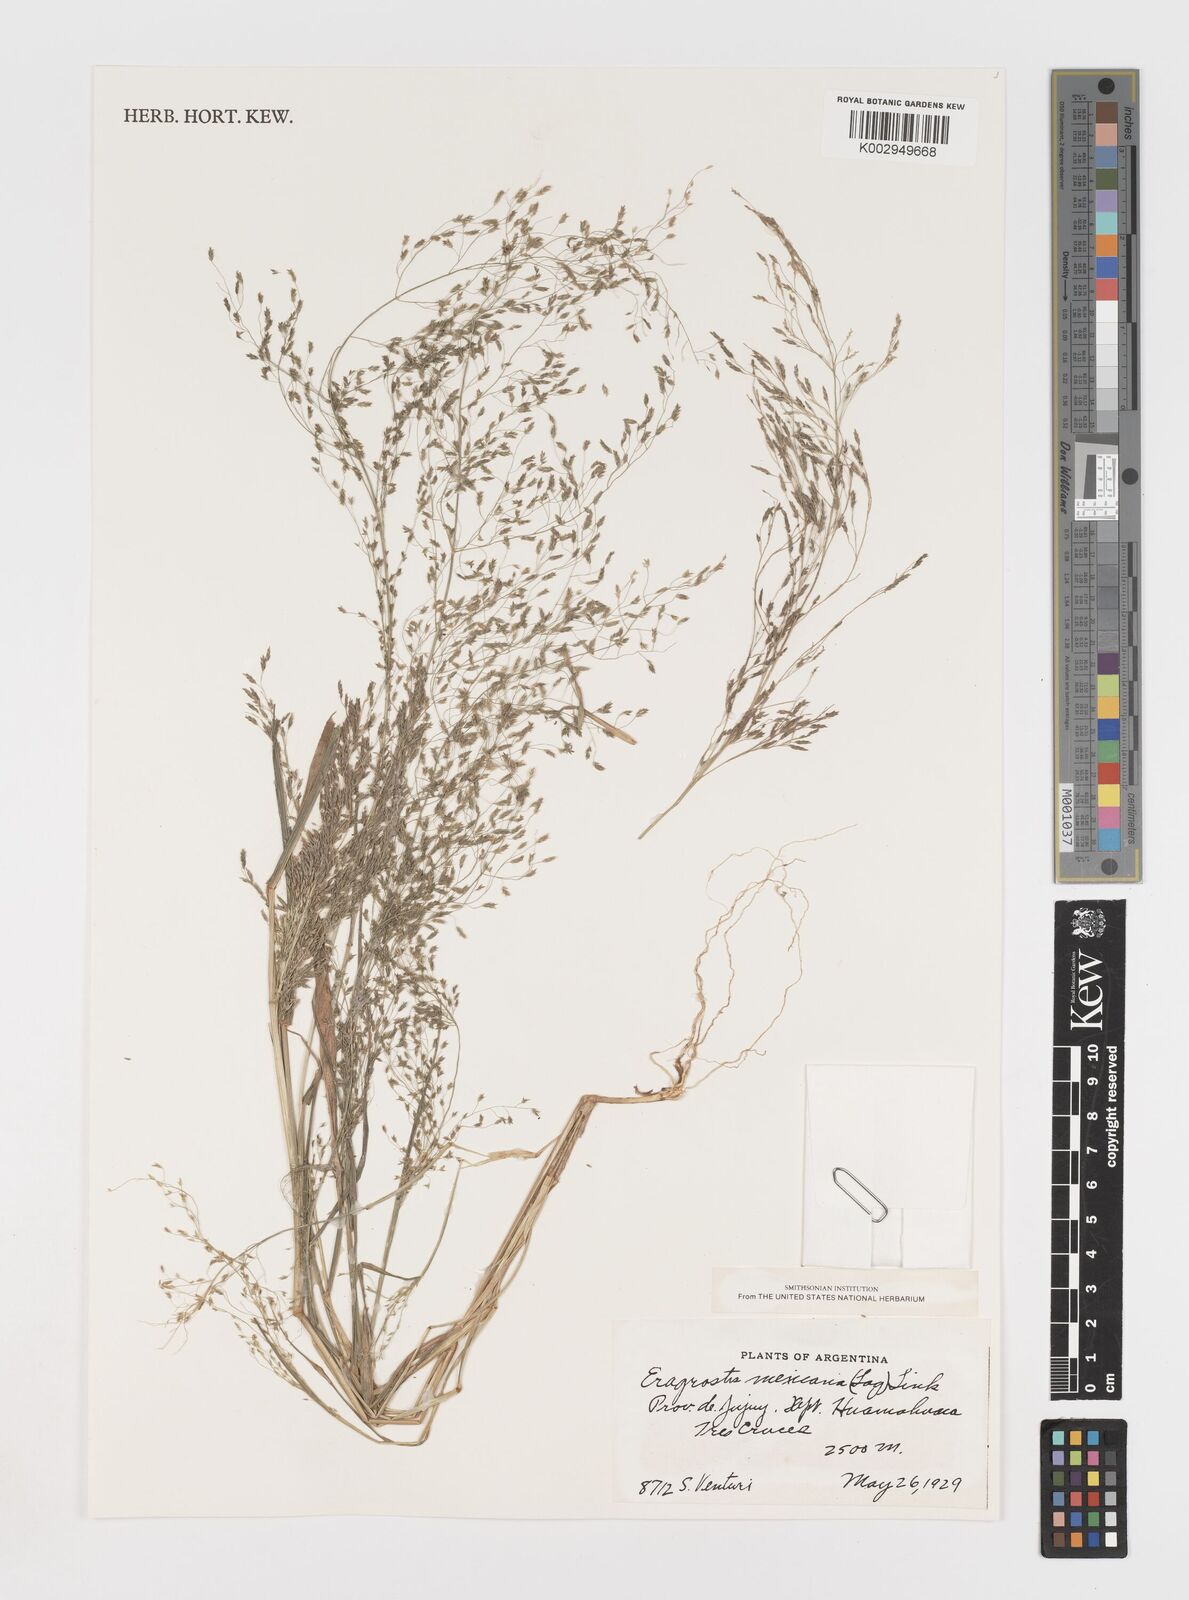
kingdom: Plantae
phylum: Tracheophyta
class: Liliopsida
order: Poales
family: Poaceae
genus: Eragrostis
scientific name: Eragrostis mexicana
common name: Mexican love grass
